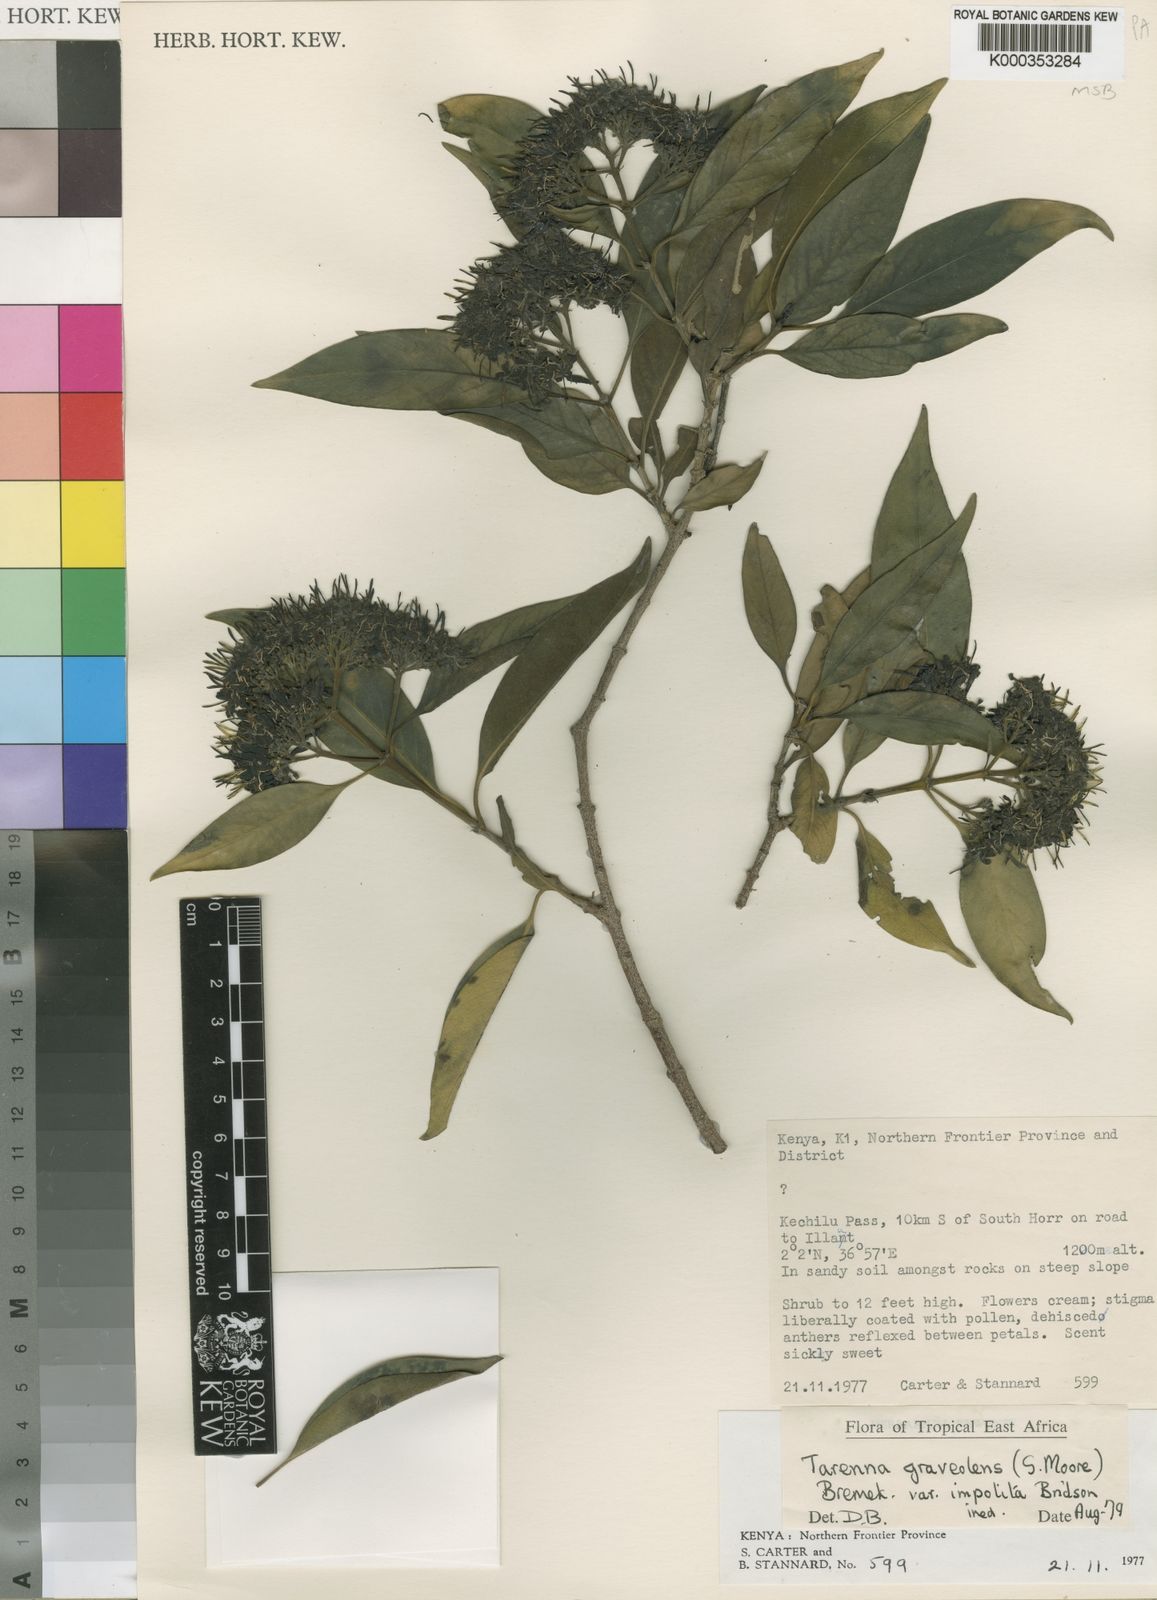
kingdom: Plantae
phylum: Tracheophyta
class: Magnoliopsida
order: Gentianales
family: Rubiaceae
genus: Coptosperma
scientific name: Coptosperma graveolens
